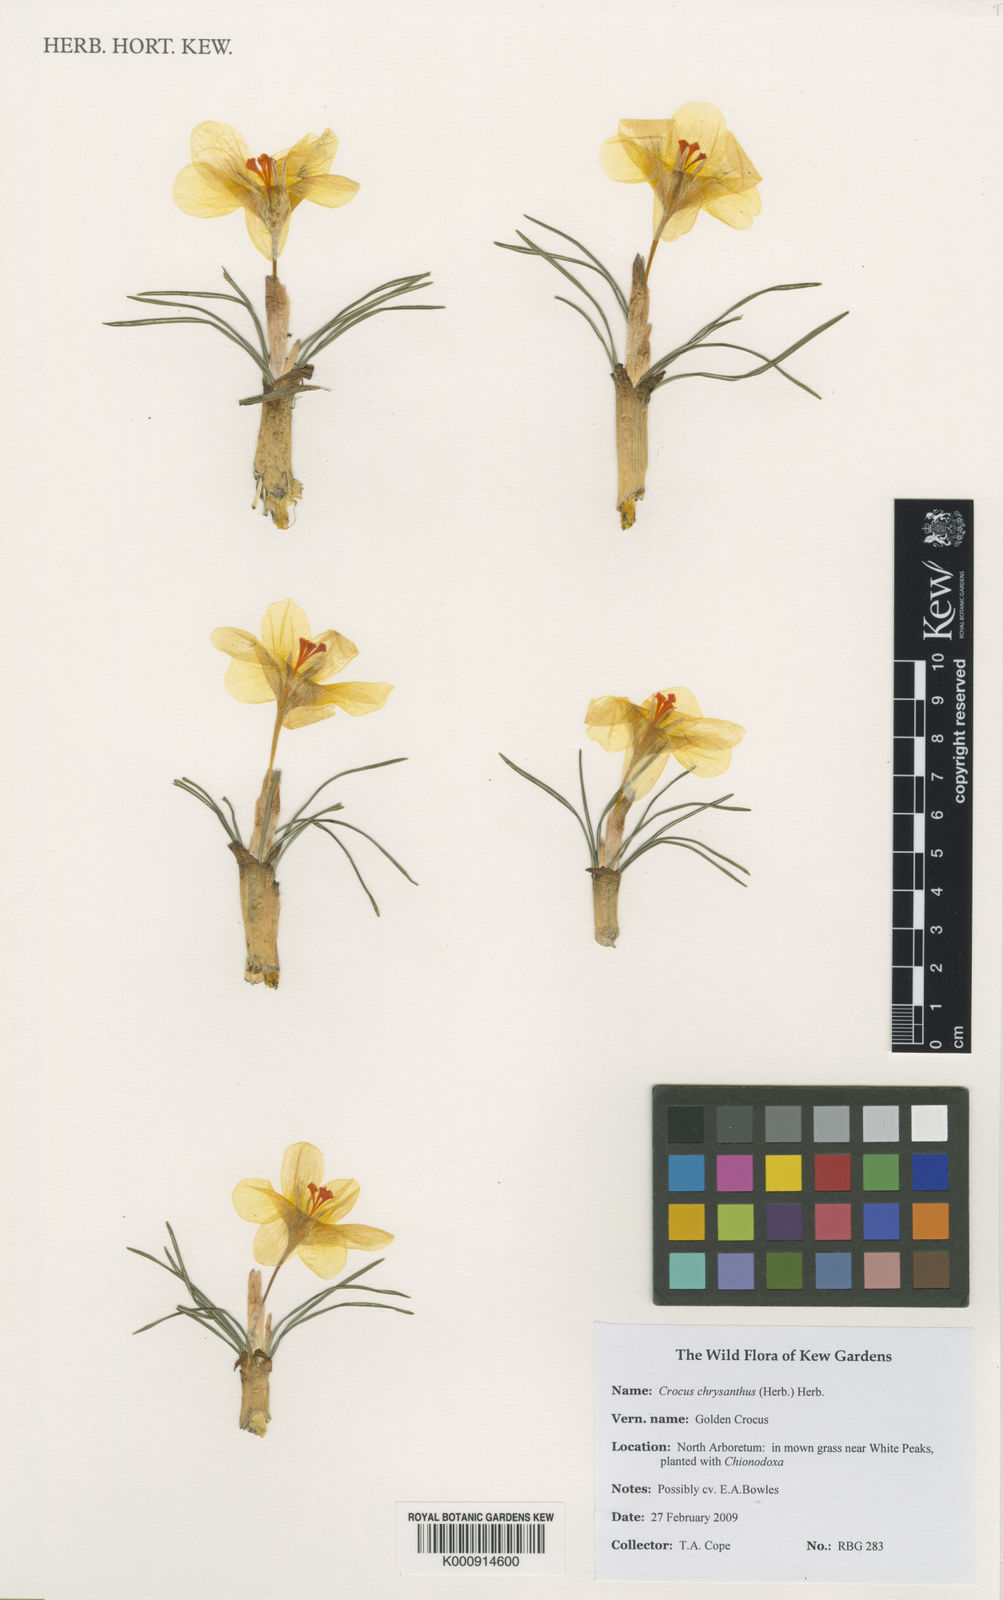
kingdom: Plantae
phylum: Tracheophyta
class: Liliopsida
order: Asparagales
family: Iridaceae
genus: Crocus
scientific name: Crocus chrysanthus
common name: Golden crocus
